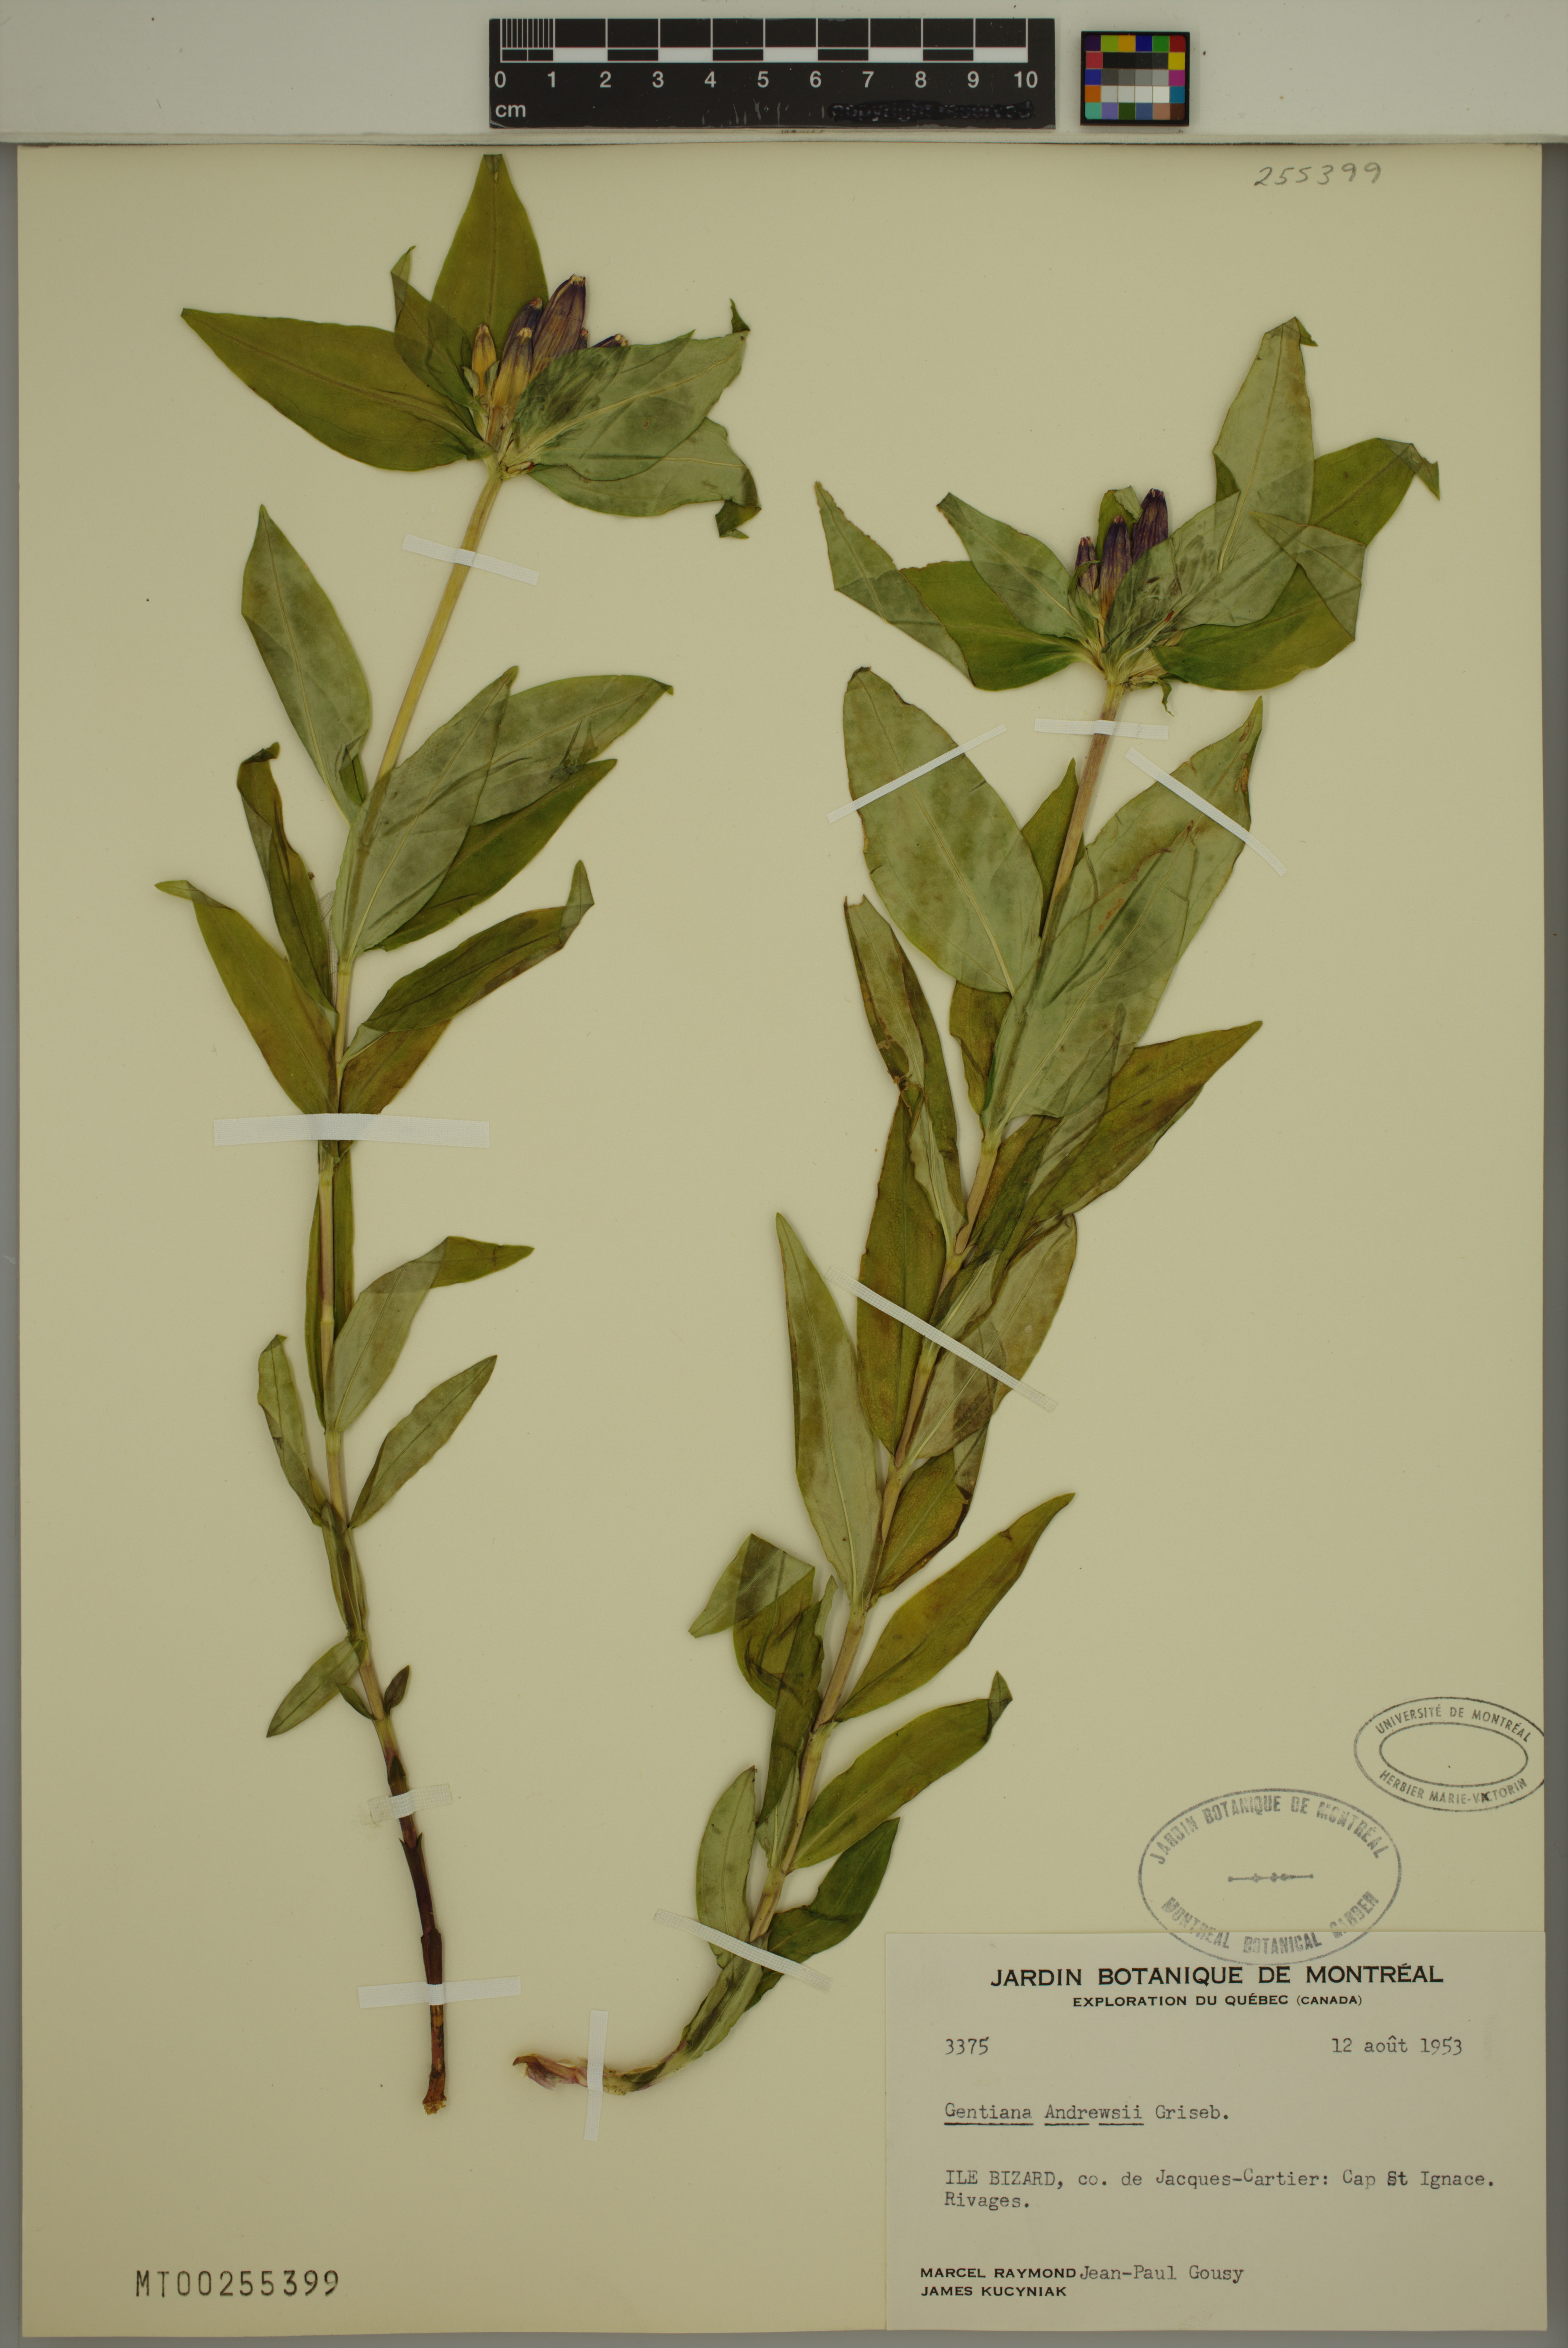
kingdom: Plantae
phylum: Tracheophyta
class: Magnoliopsida
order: Gentianales
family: Gentianaceae
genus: Gentiana
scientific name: Gentiana andrewsii
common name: Bottle gentian
